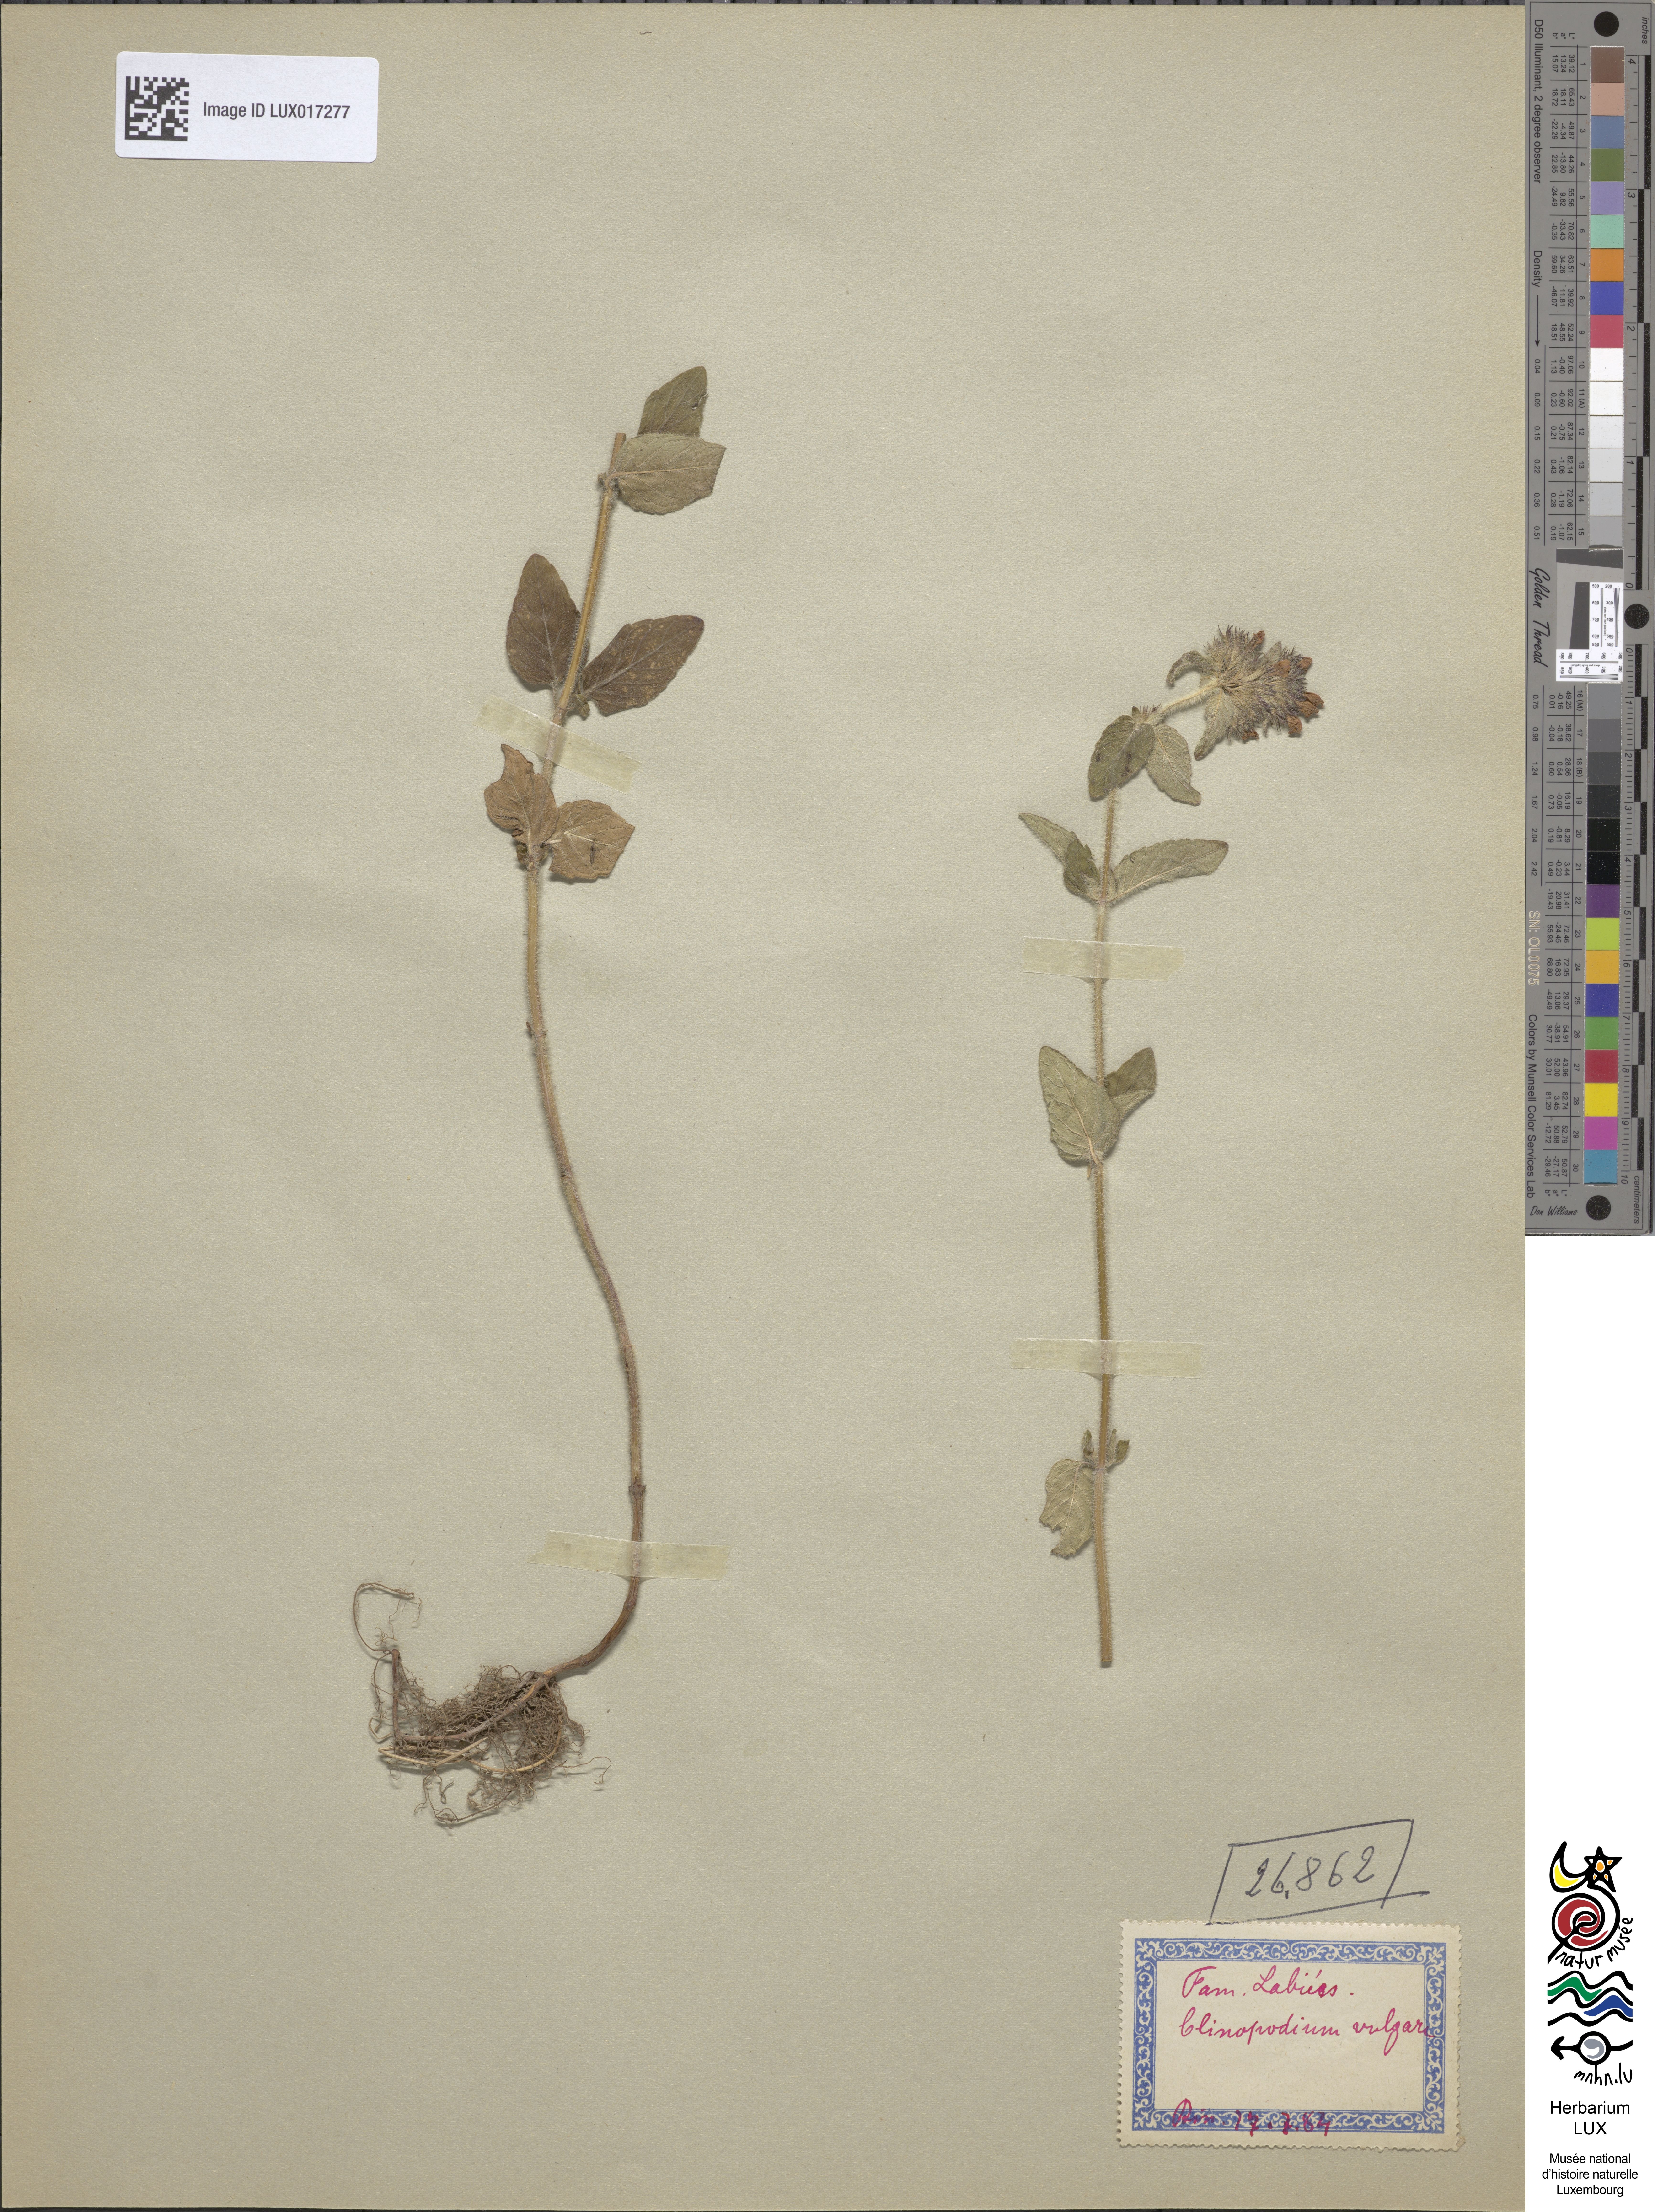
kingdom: Plantae
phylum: Tracheophyta
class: Magnoliopsida
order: Lamiales
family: Lamiaceae
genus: Clinopodium
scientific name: Clinopodium vulgare
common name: Wild basil
